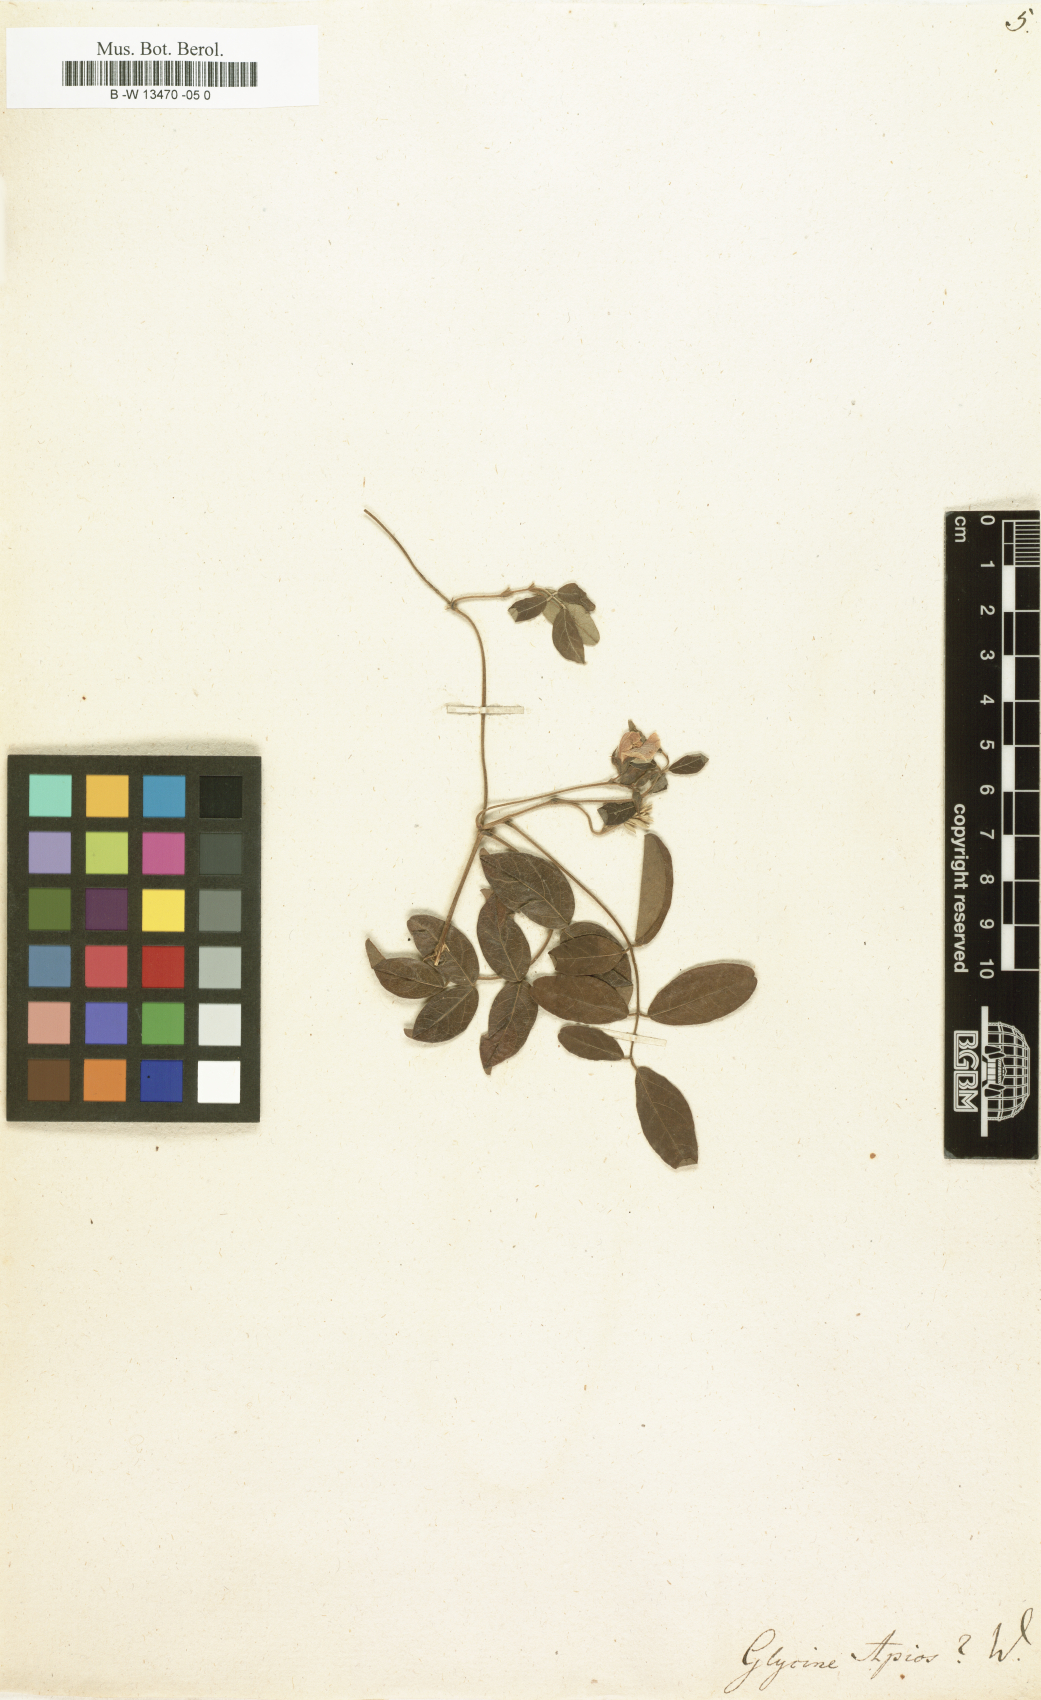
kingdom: Plantae
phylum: Tracheophyta
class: Magnoliopsida
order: Fabales
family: Fabaceae
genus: Apios
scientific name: Apios americana
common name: American potato-bean
